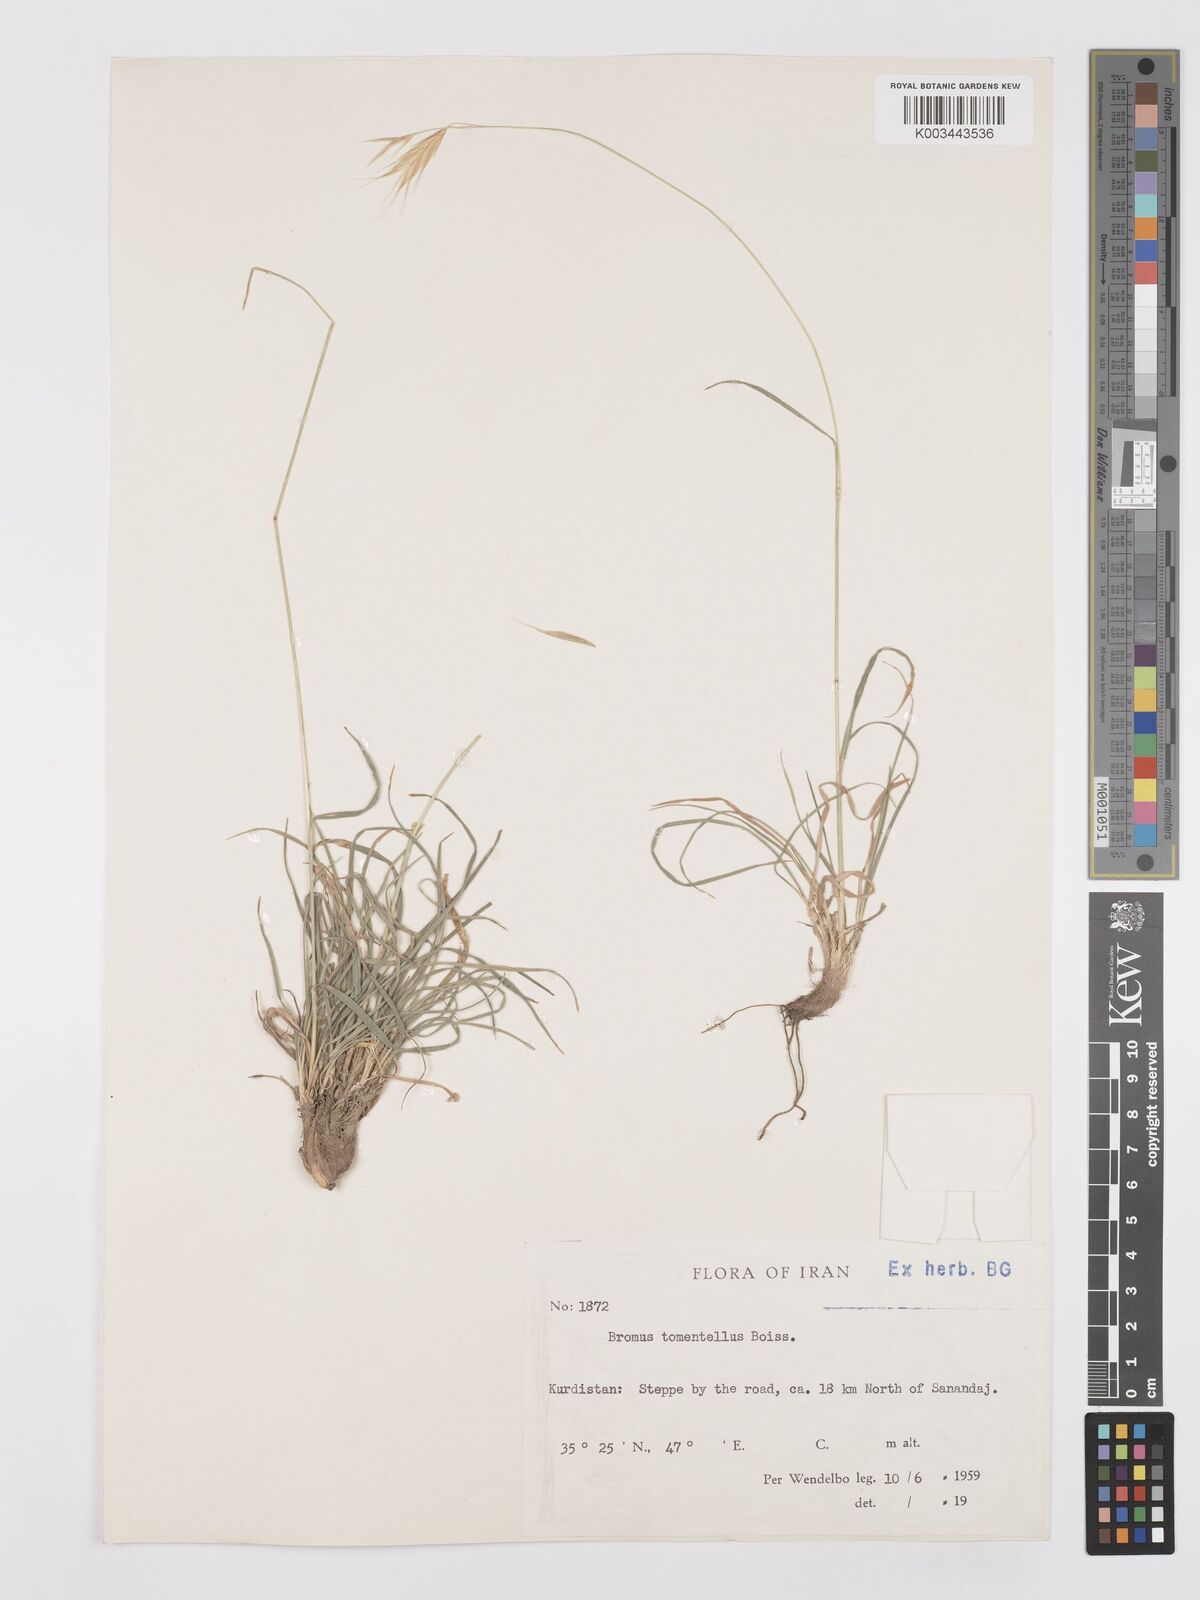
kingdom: Plantae
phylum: Tracheophyta
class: Liliopsida
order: Poales
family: Poaceae
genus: Bromus
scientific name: Bromus tomentellus
